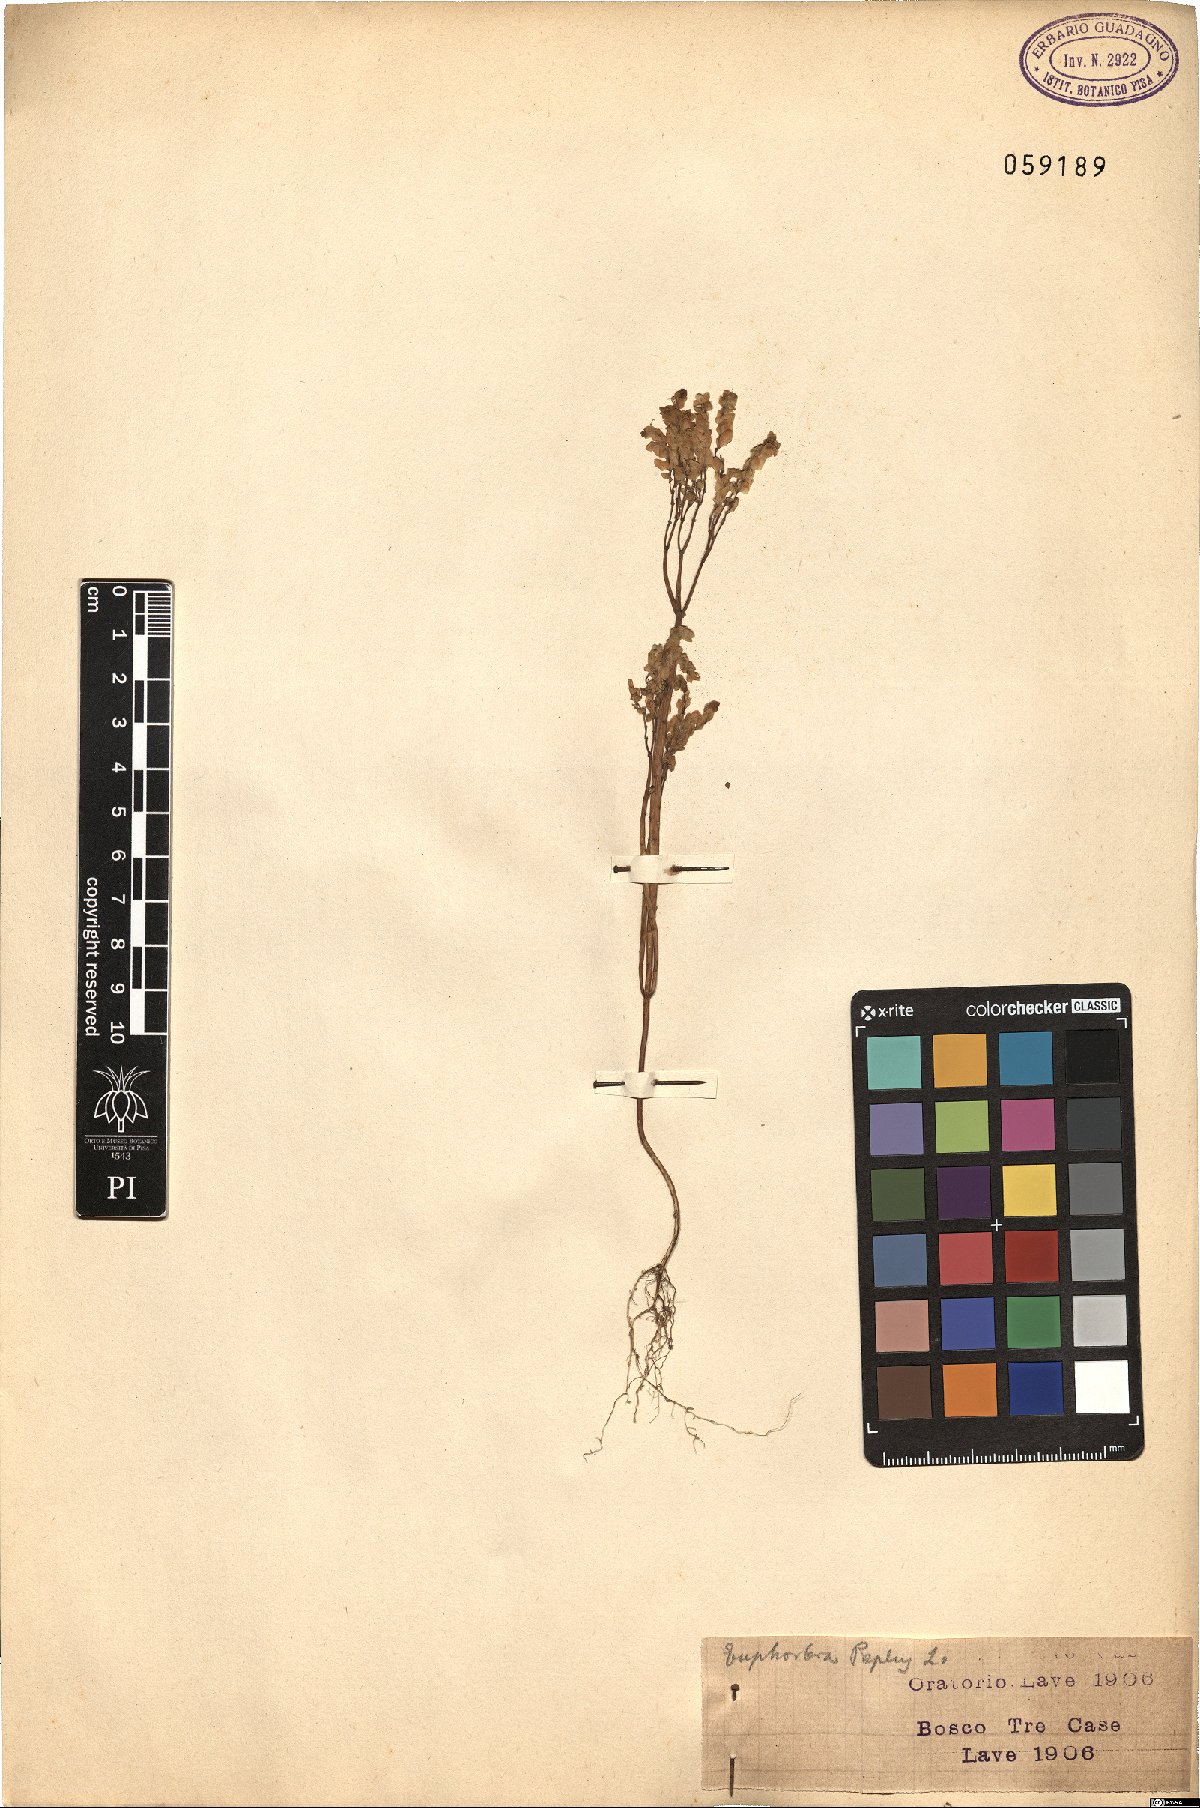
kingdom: Plantae
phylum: Tracheophyta
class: Magnoliopsida
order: Malpighiales
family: Euphorbiaceae
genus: Euphorbia
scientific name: Euphorbia peplus
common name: Petty spurge
